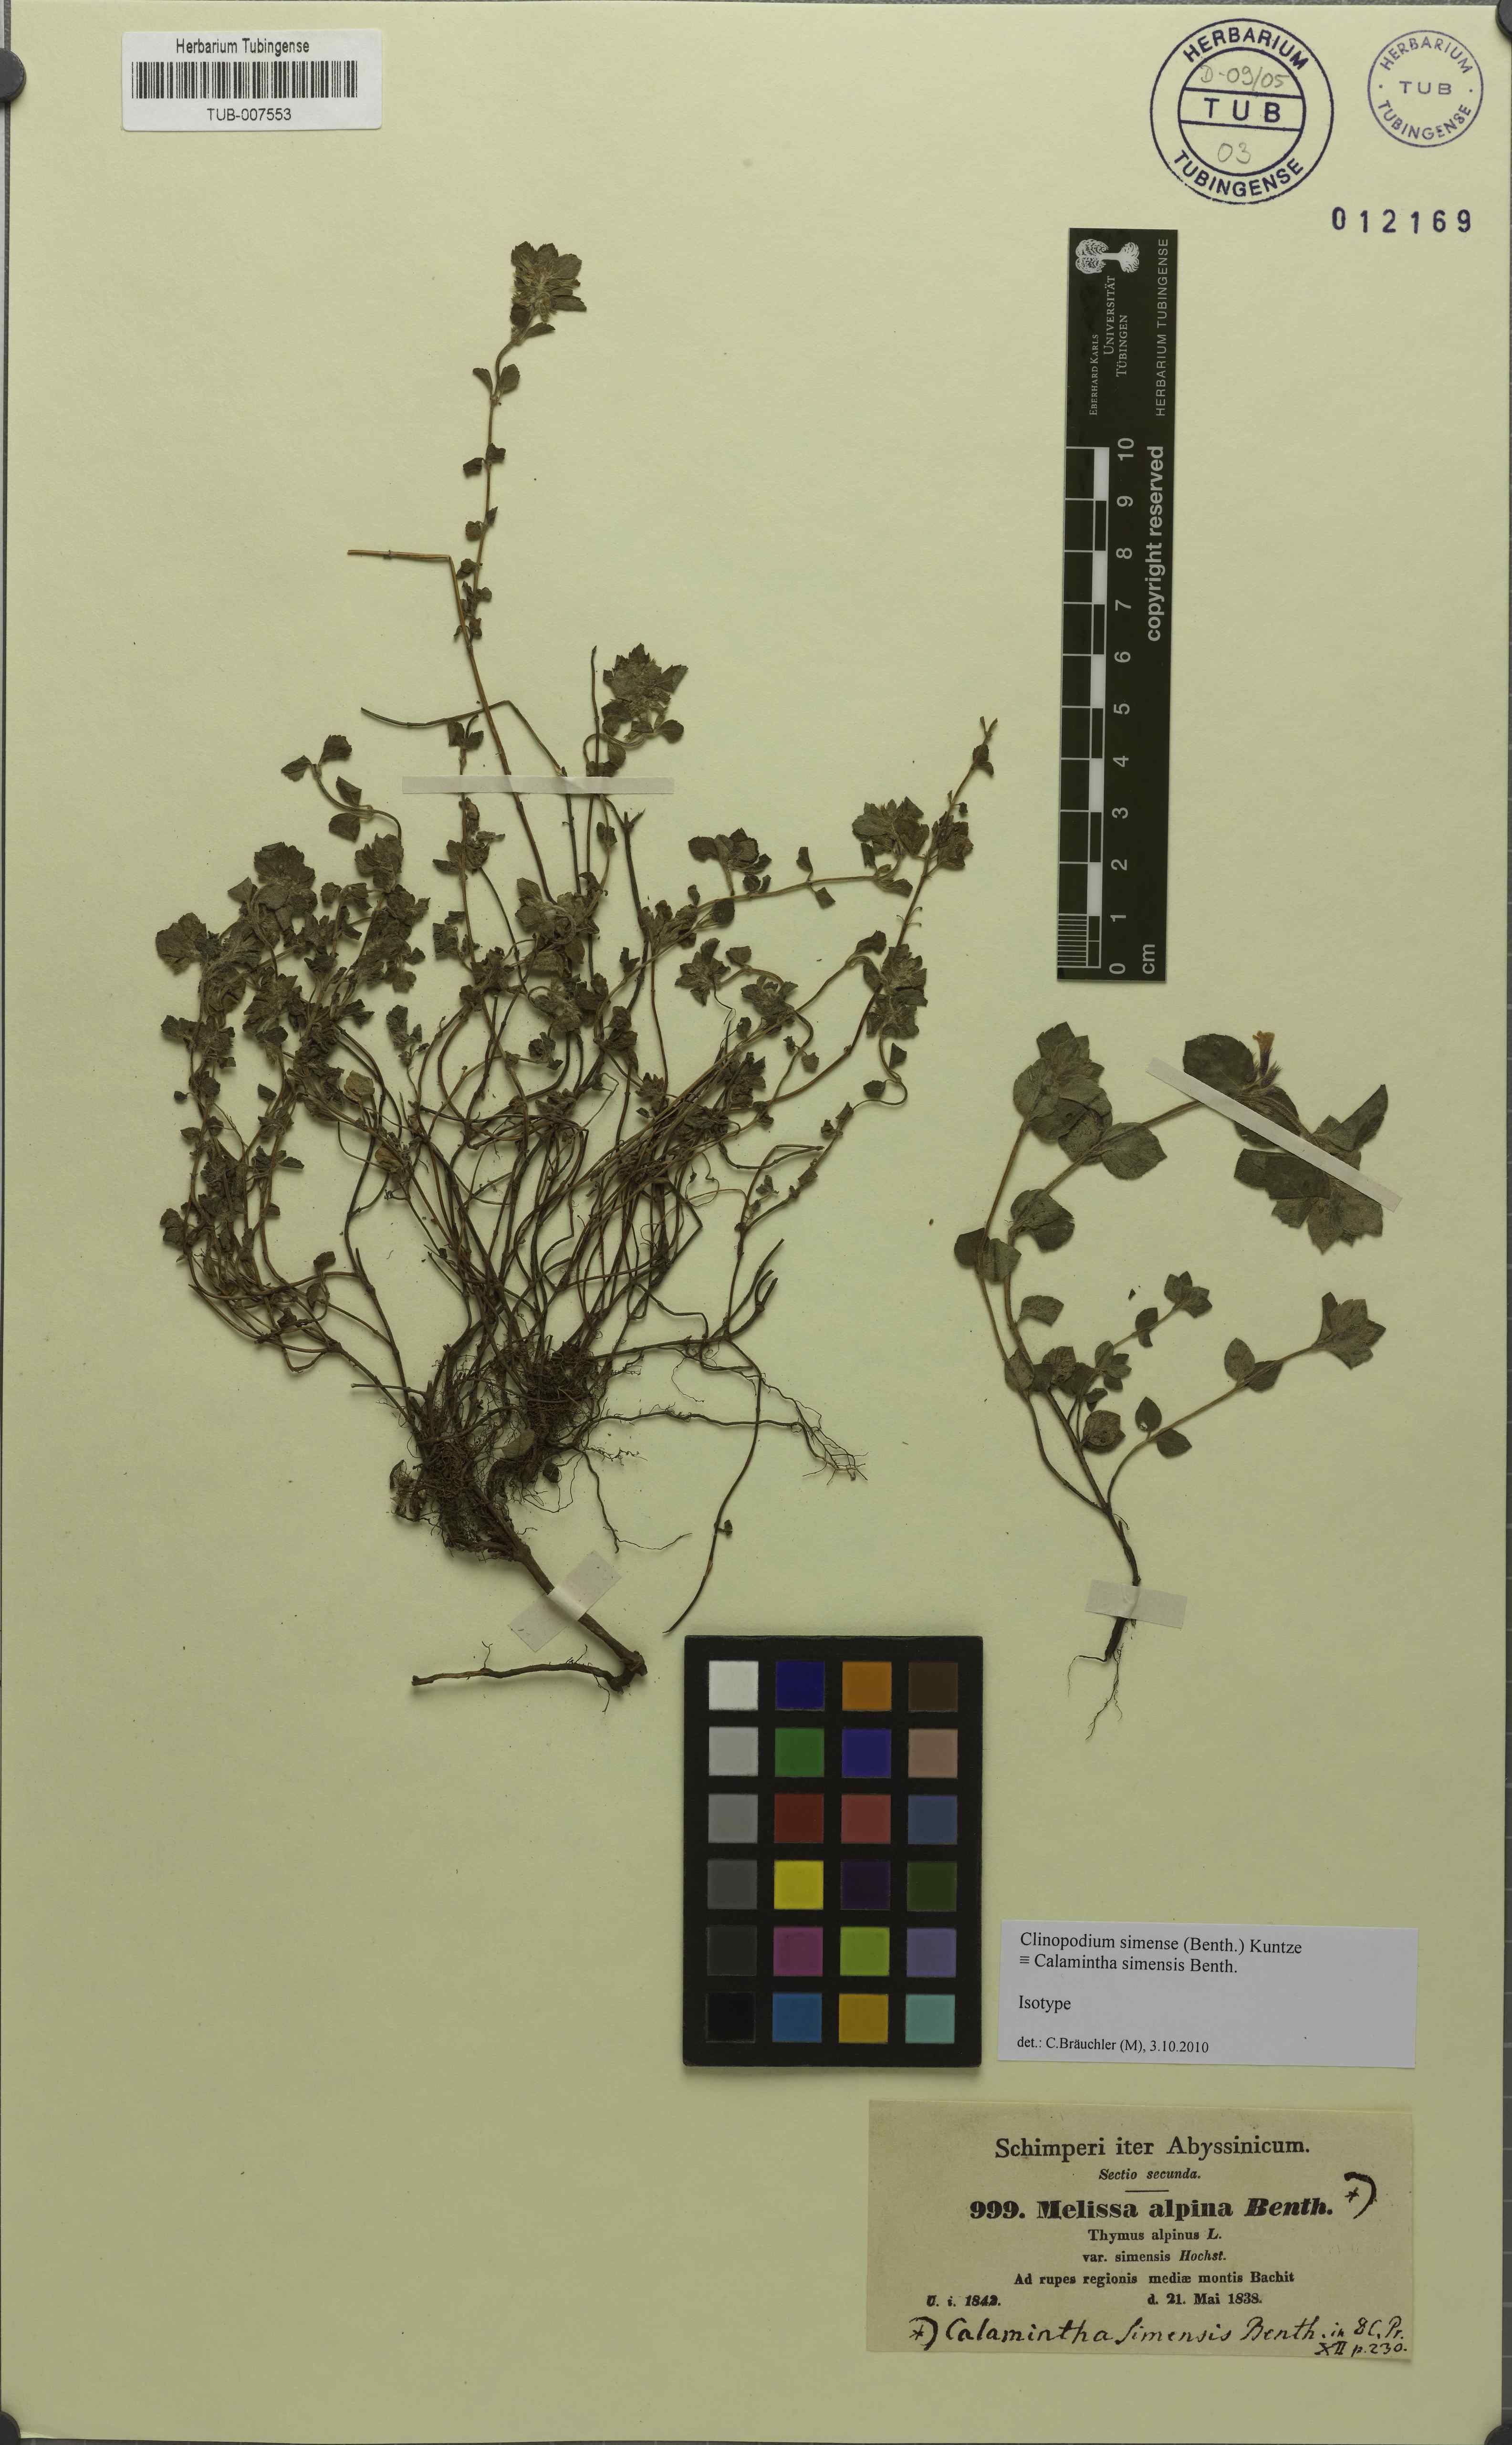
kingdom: Plantae
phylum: Tracheophyta
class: Magnoliopsida
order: Lamiales
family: Lamiaceae
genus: Clinopodium
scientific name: Clinopodium simense
